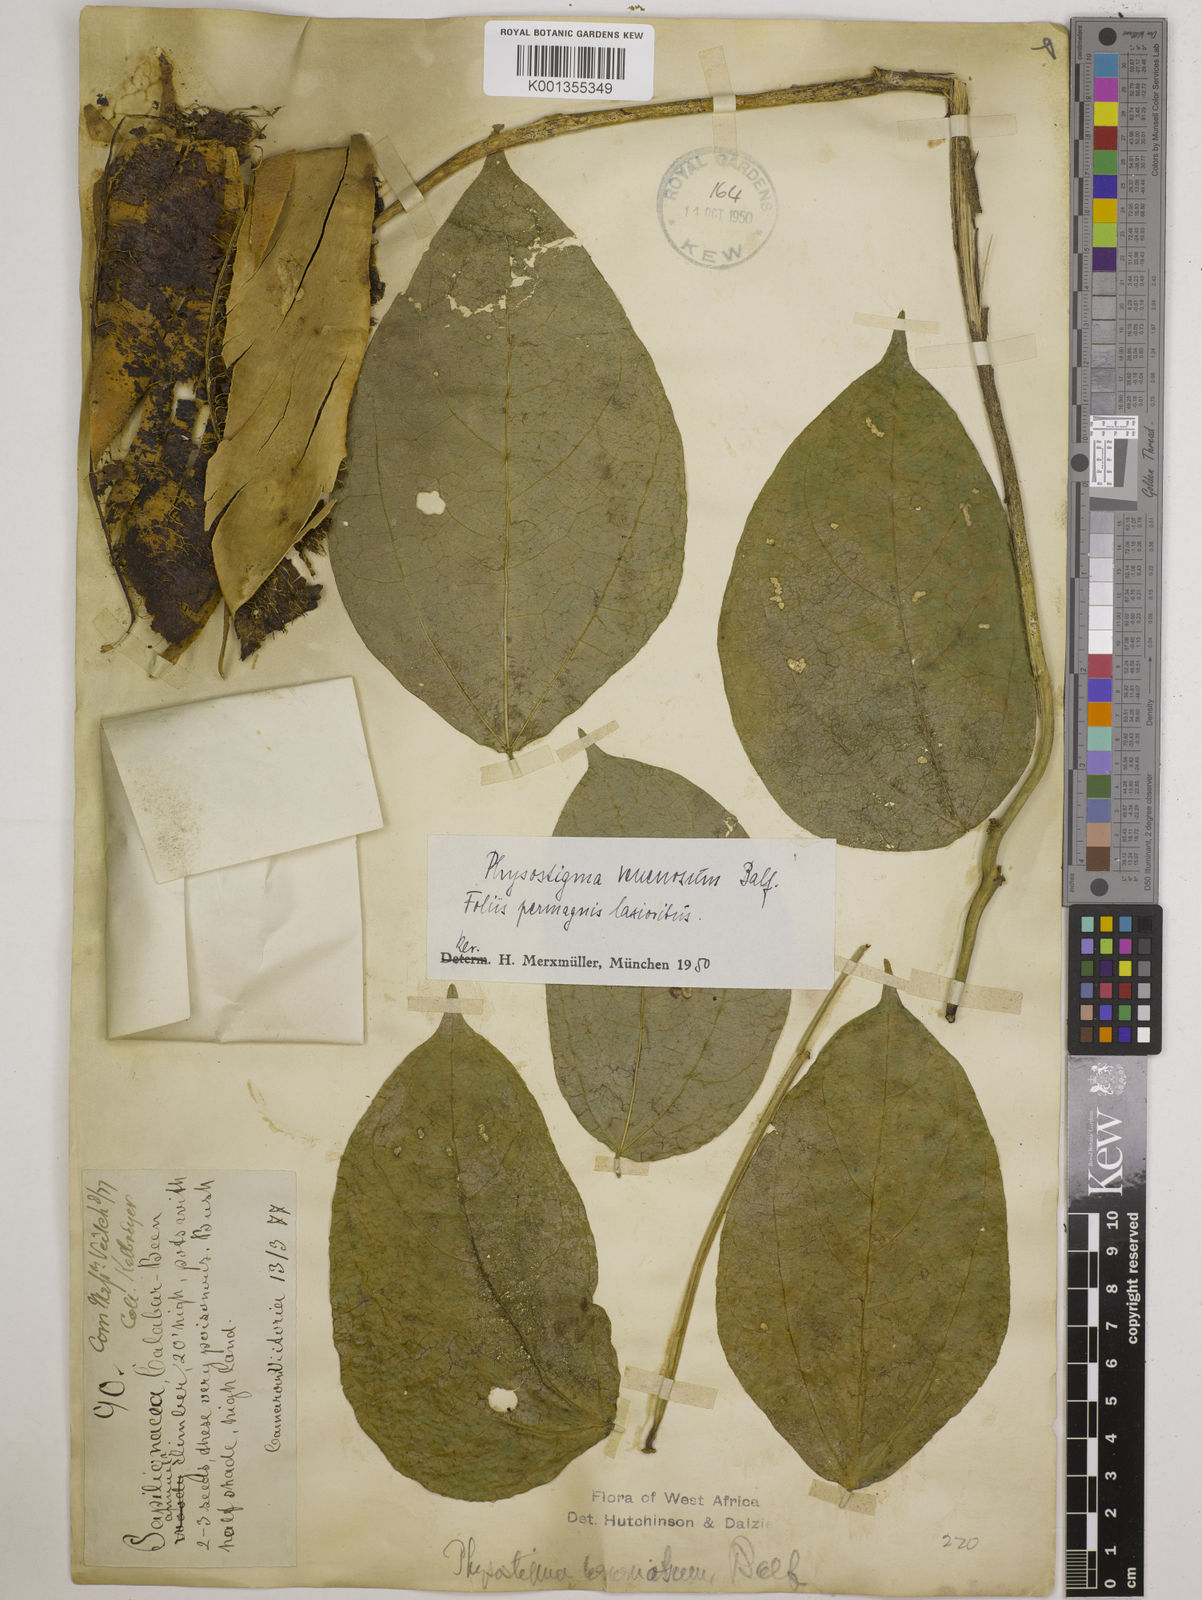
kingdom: Plantae
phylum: Tracheophyta
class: Magnoliopsida
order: Fabales
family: Fabaceae
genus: Physostigma
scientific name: Physostigma venenosum
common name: Calabar-bean
